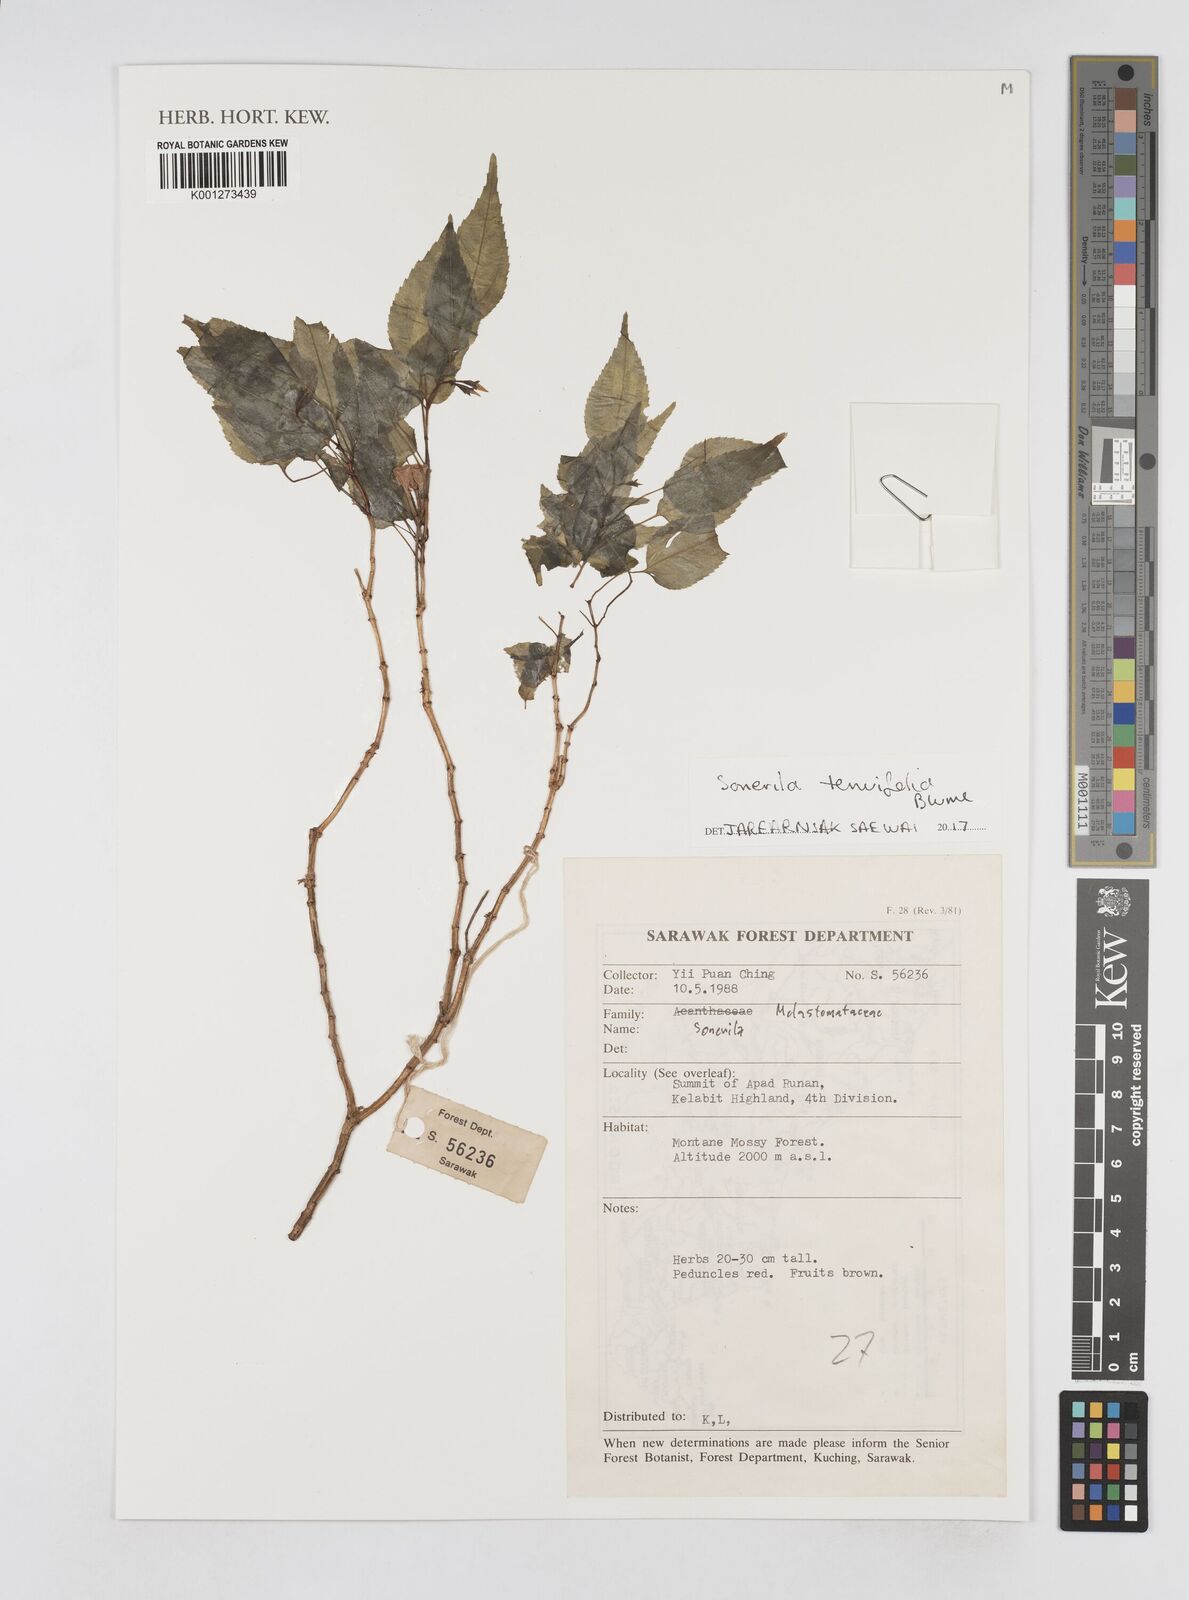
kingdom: Plantae
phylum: Tracheophyta
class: Magnoliopsida
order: Myrtales
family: Melastomataceae
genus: Sonerila
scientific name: Sonerila tenuifolia
